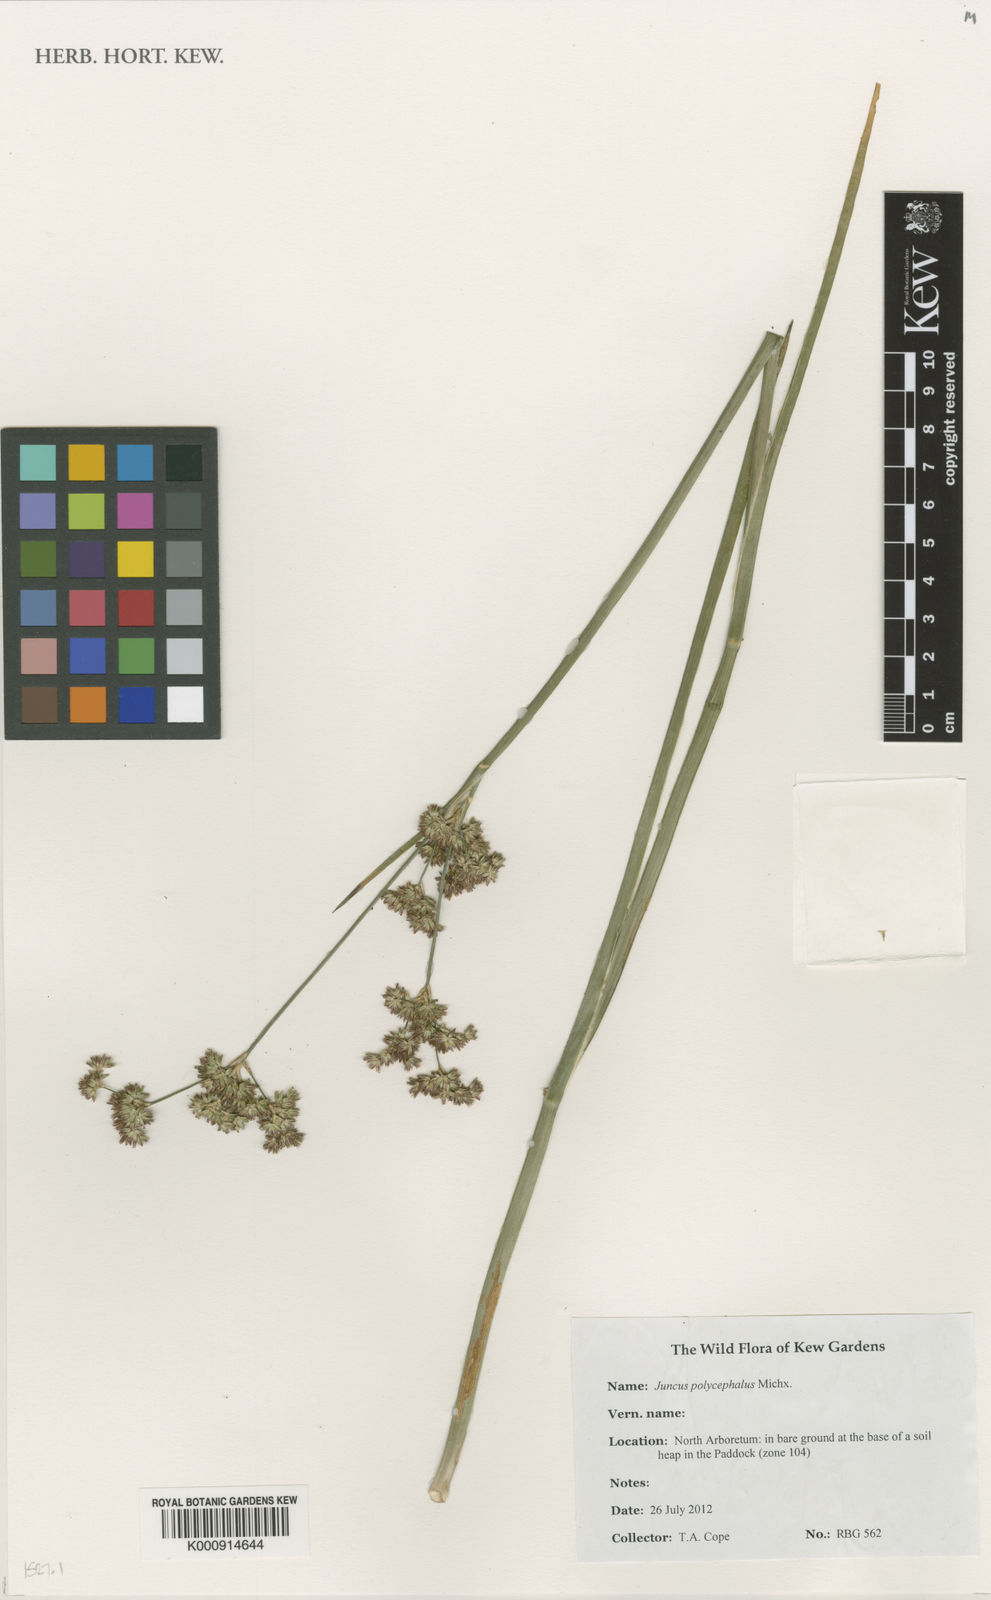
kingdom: Plantae
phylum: Tracheophyta
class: Liliopsida
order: Poales
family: Juncaceae
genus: Juncus
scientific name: Juncus polycephalus
